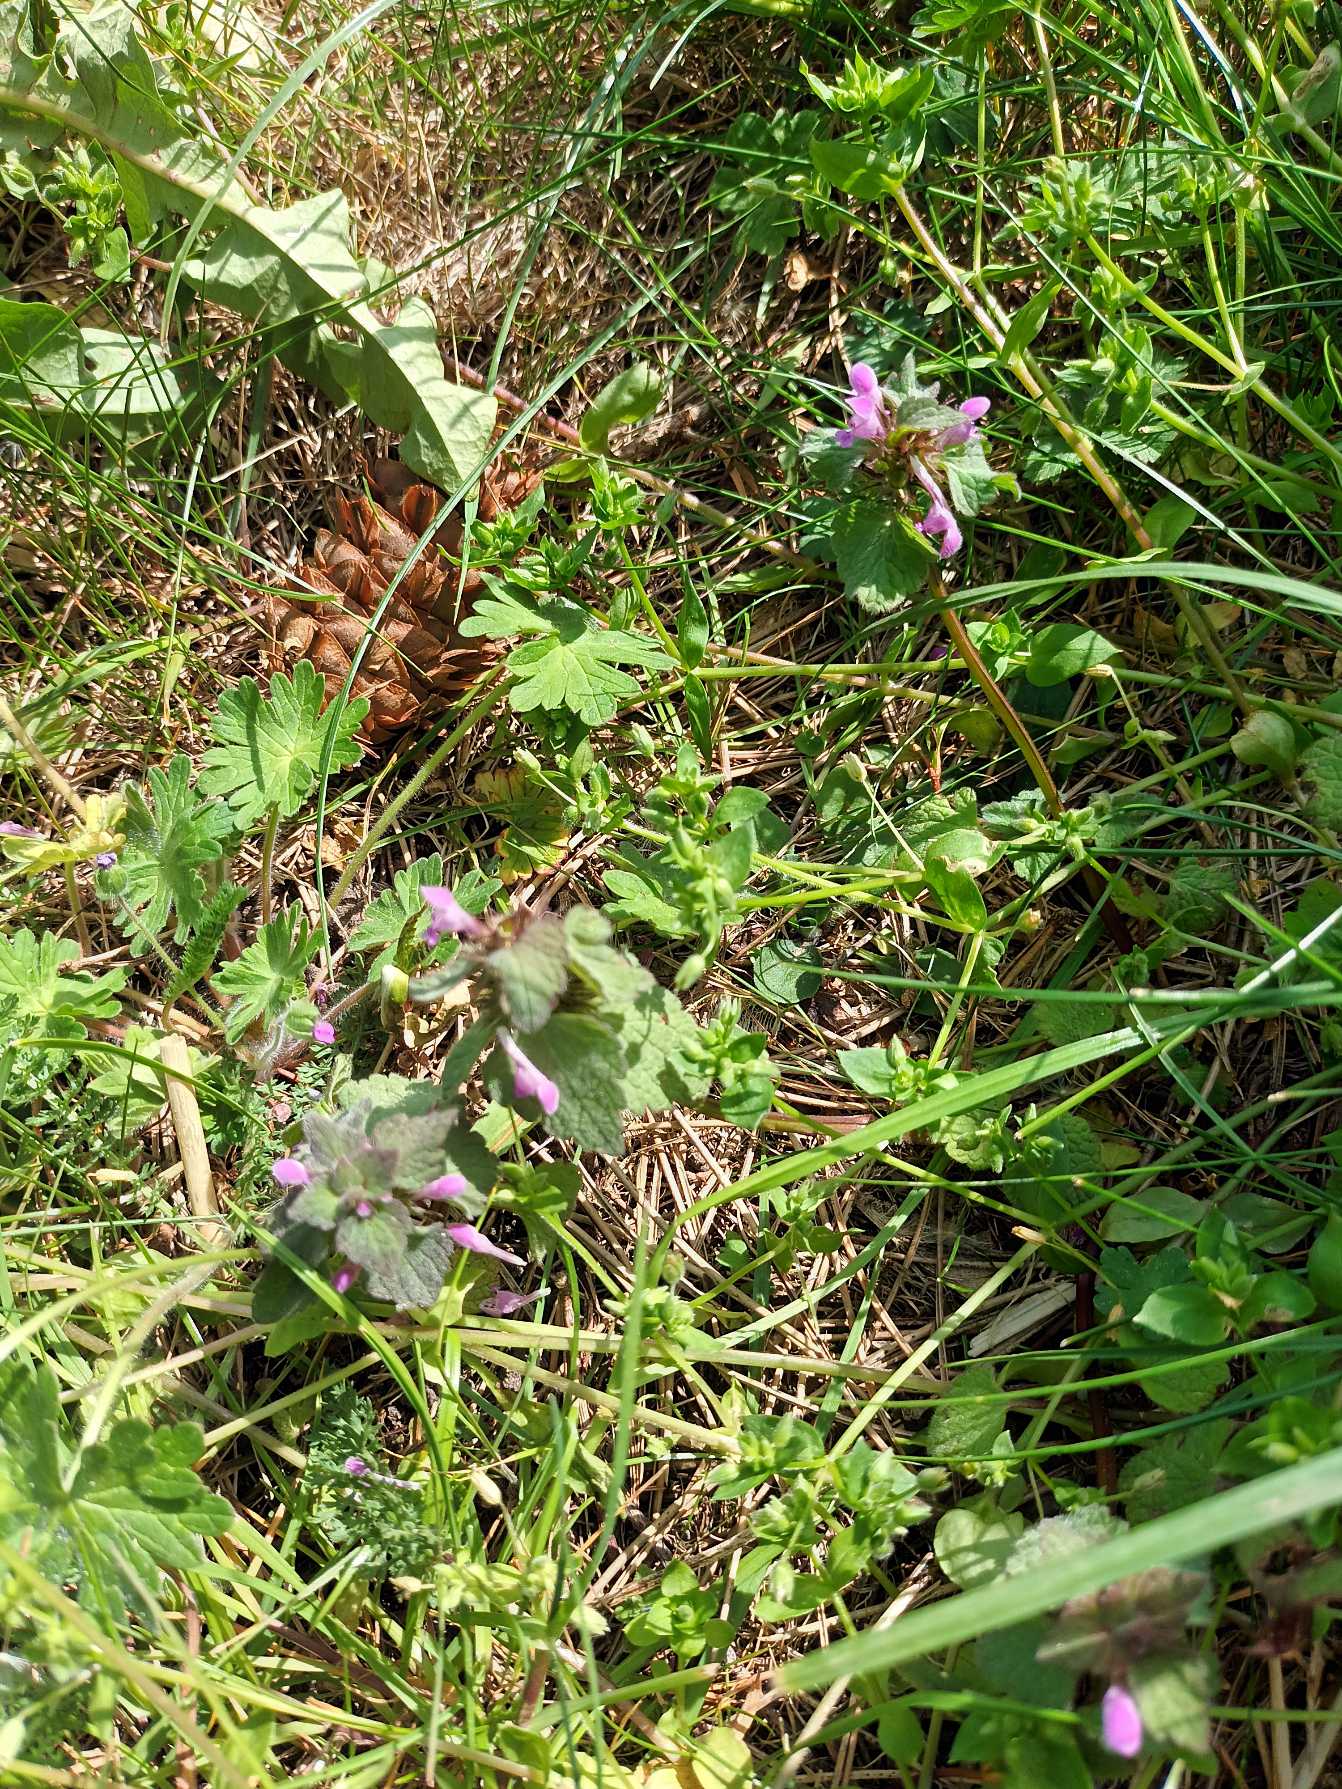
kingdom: Plantae
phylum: Tracheophyta
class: Magnoliopsida
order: Lamiales
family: Lamiaceae
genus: Lamium
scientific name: Lamium purpureum
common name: Rød tvetand
